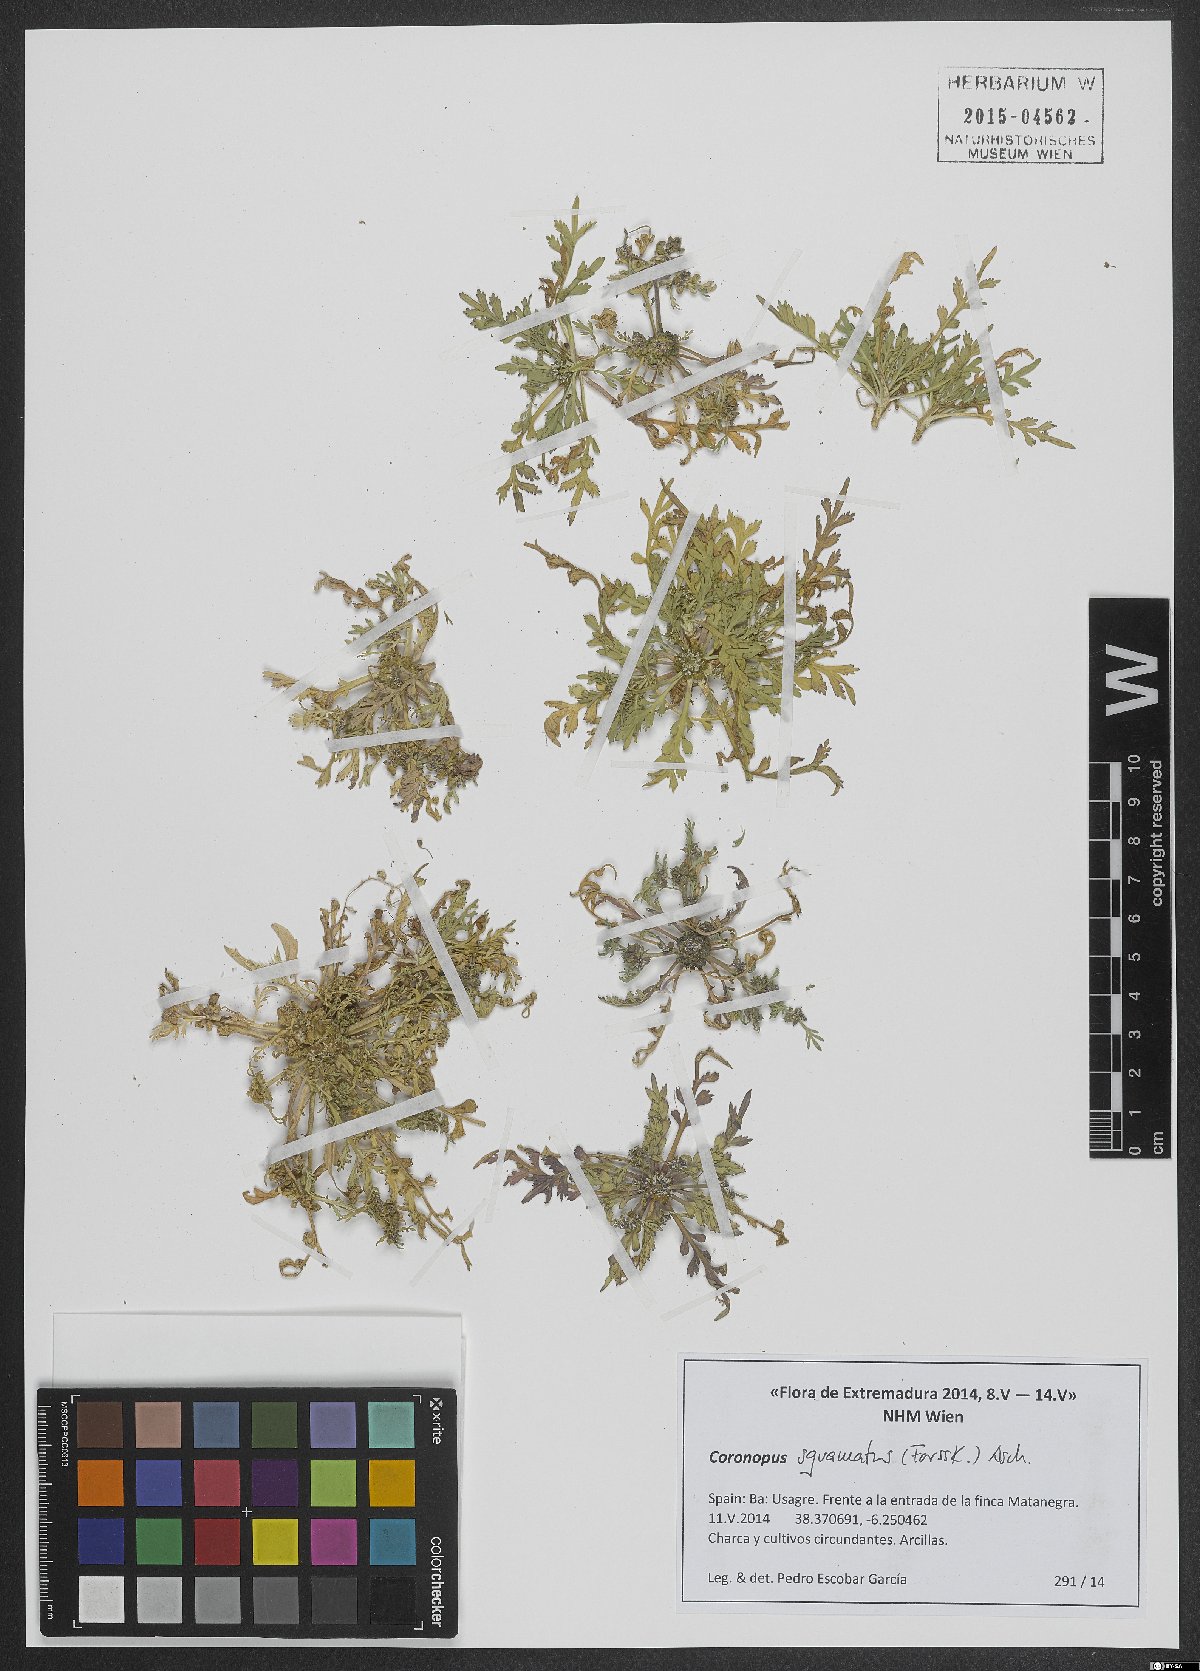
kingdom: Plantae
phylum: Tracheophyta
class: Magnoliopsida
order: Brassicales
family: Brassicaceae
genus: Lepidium
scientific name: Lepidium coronopus
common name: Greater swinecress
